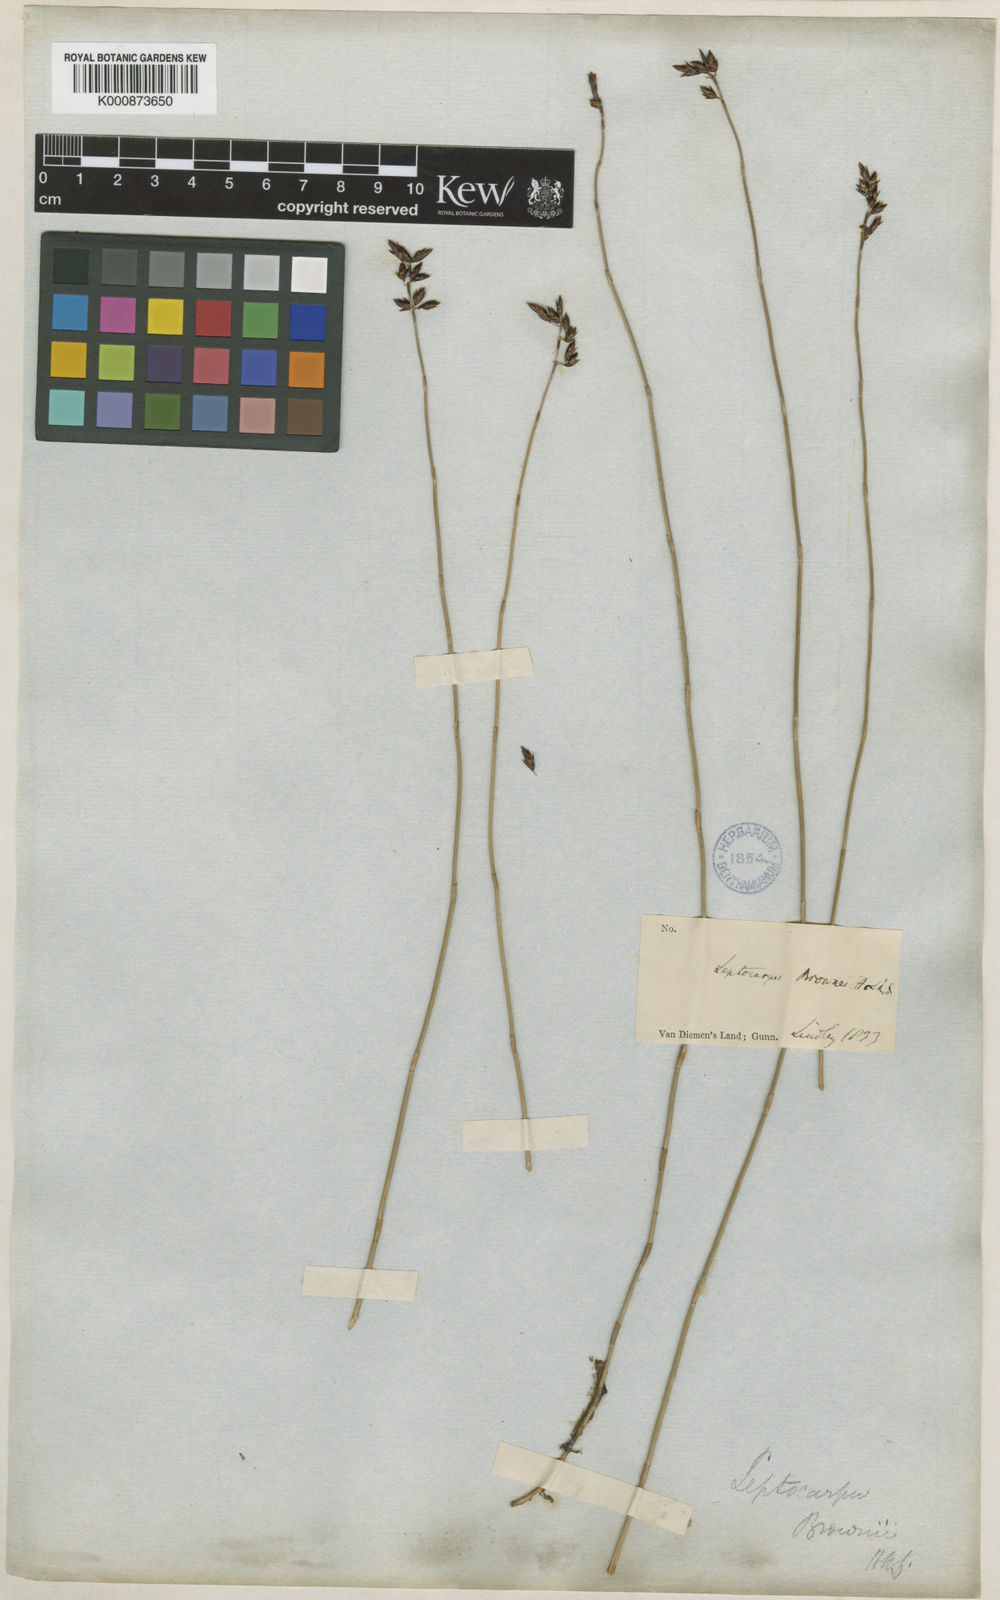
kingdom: Plantae
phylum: Tracheophyta
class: Liliopsida
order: Poales
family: Restionaceae
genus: Apodasmia
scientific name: Apodasmia brownii
